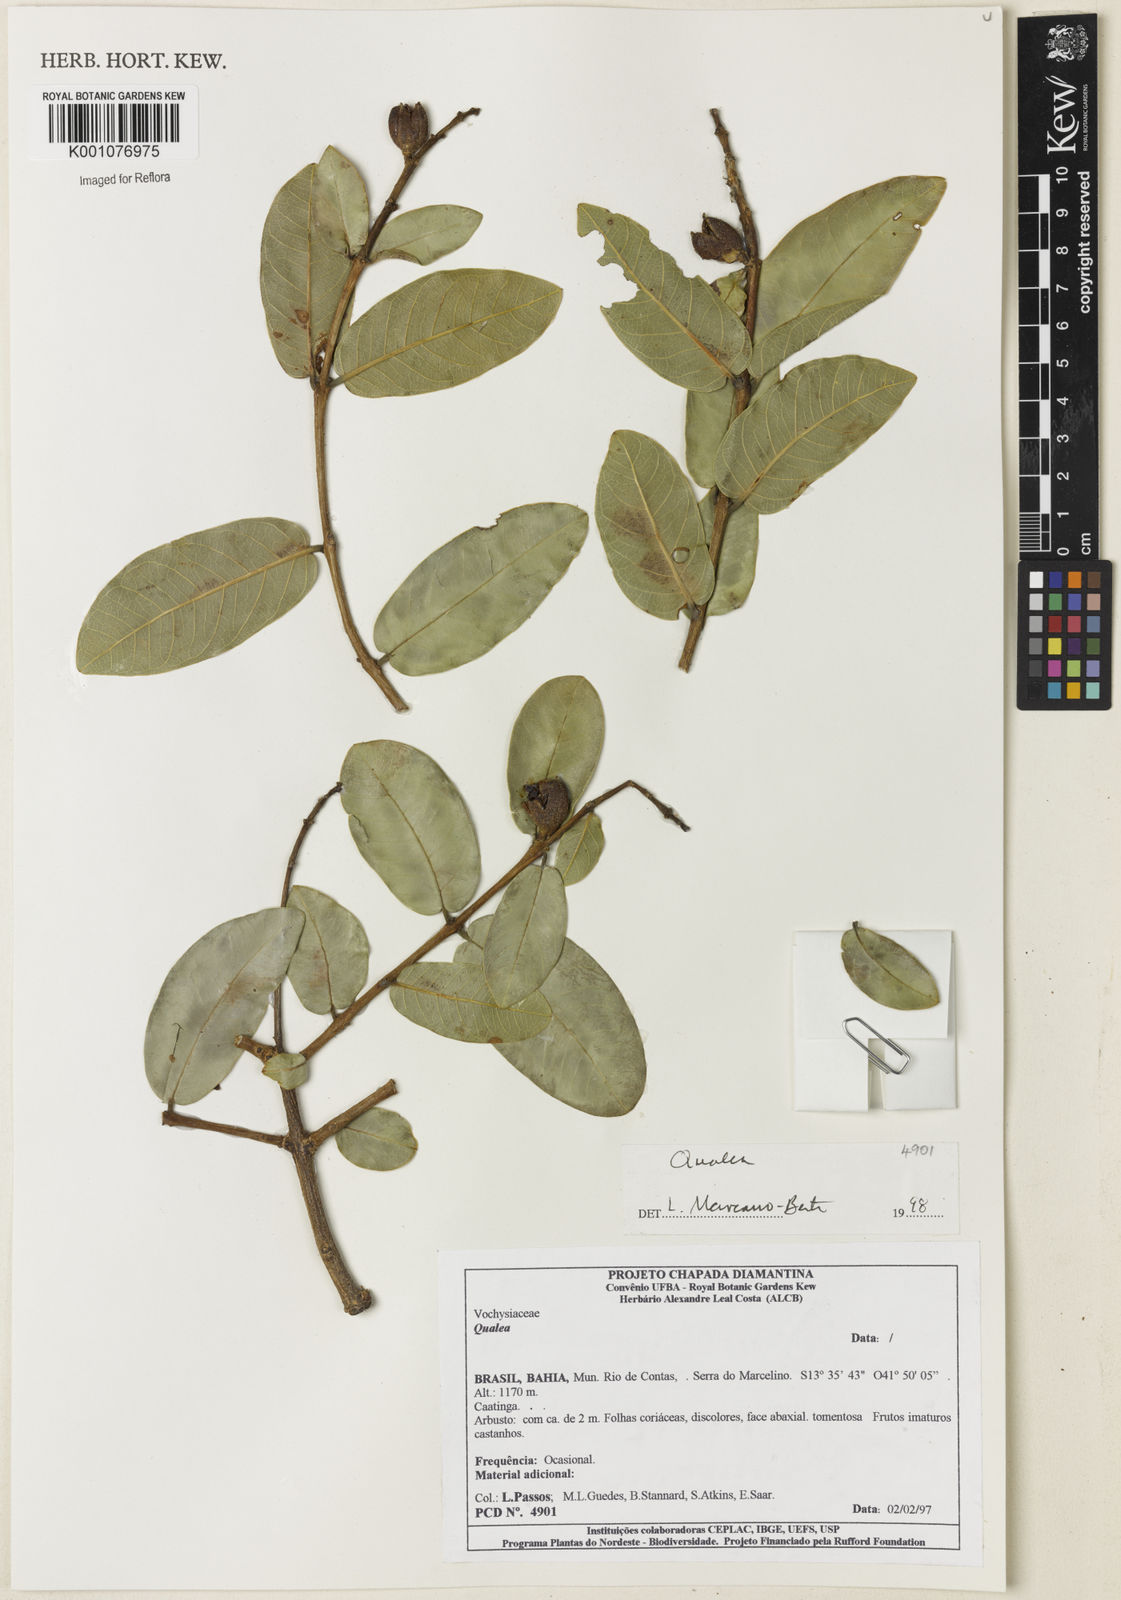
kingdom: Plantae
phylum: Tracheophyta
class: Magnoliopsida
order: Myrtales
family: Vochysiaceae
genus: Qualea
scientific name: Qualea
